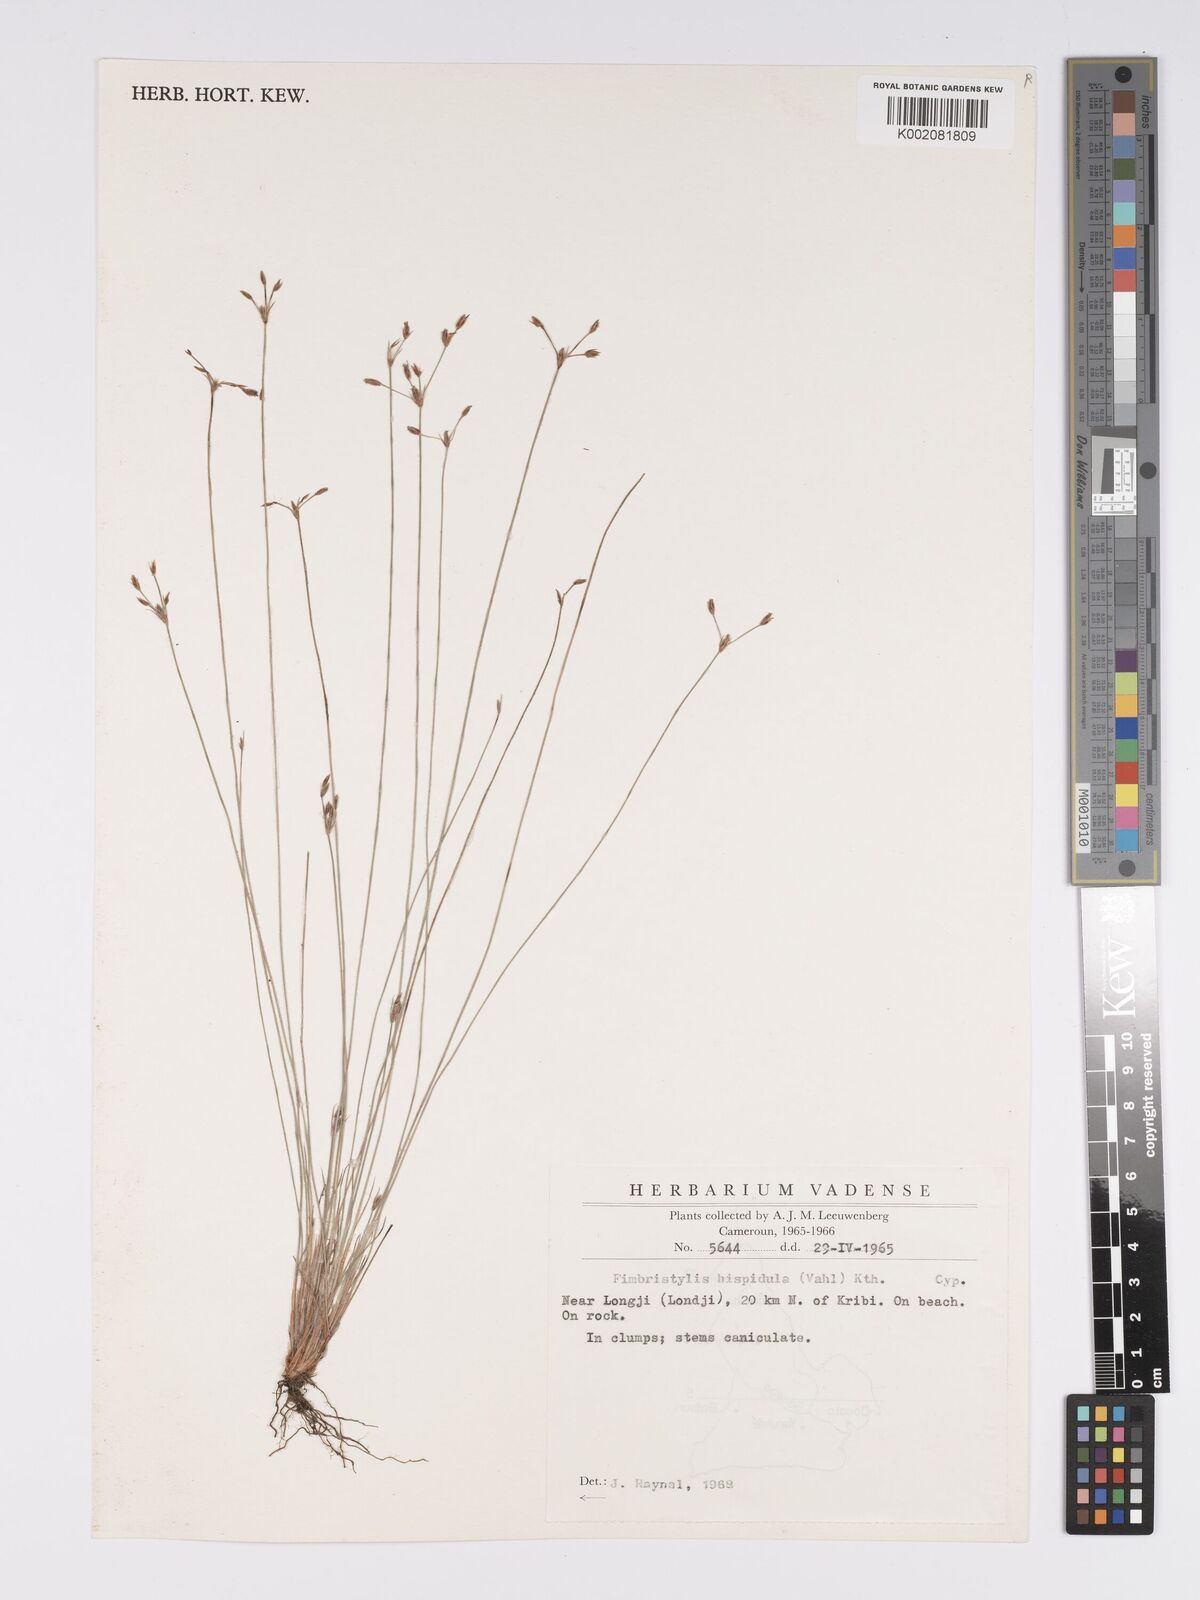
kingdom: Plantae
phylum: Tracheophyta
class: Liliopsida
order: Poales
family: Cyperaceae
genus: Bulbostylis
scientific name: Bulbostylis hispidula
